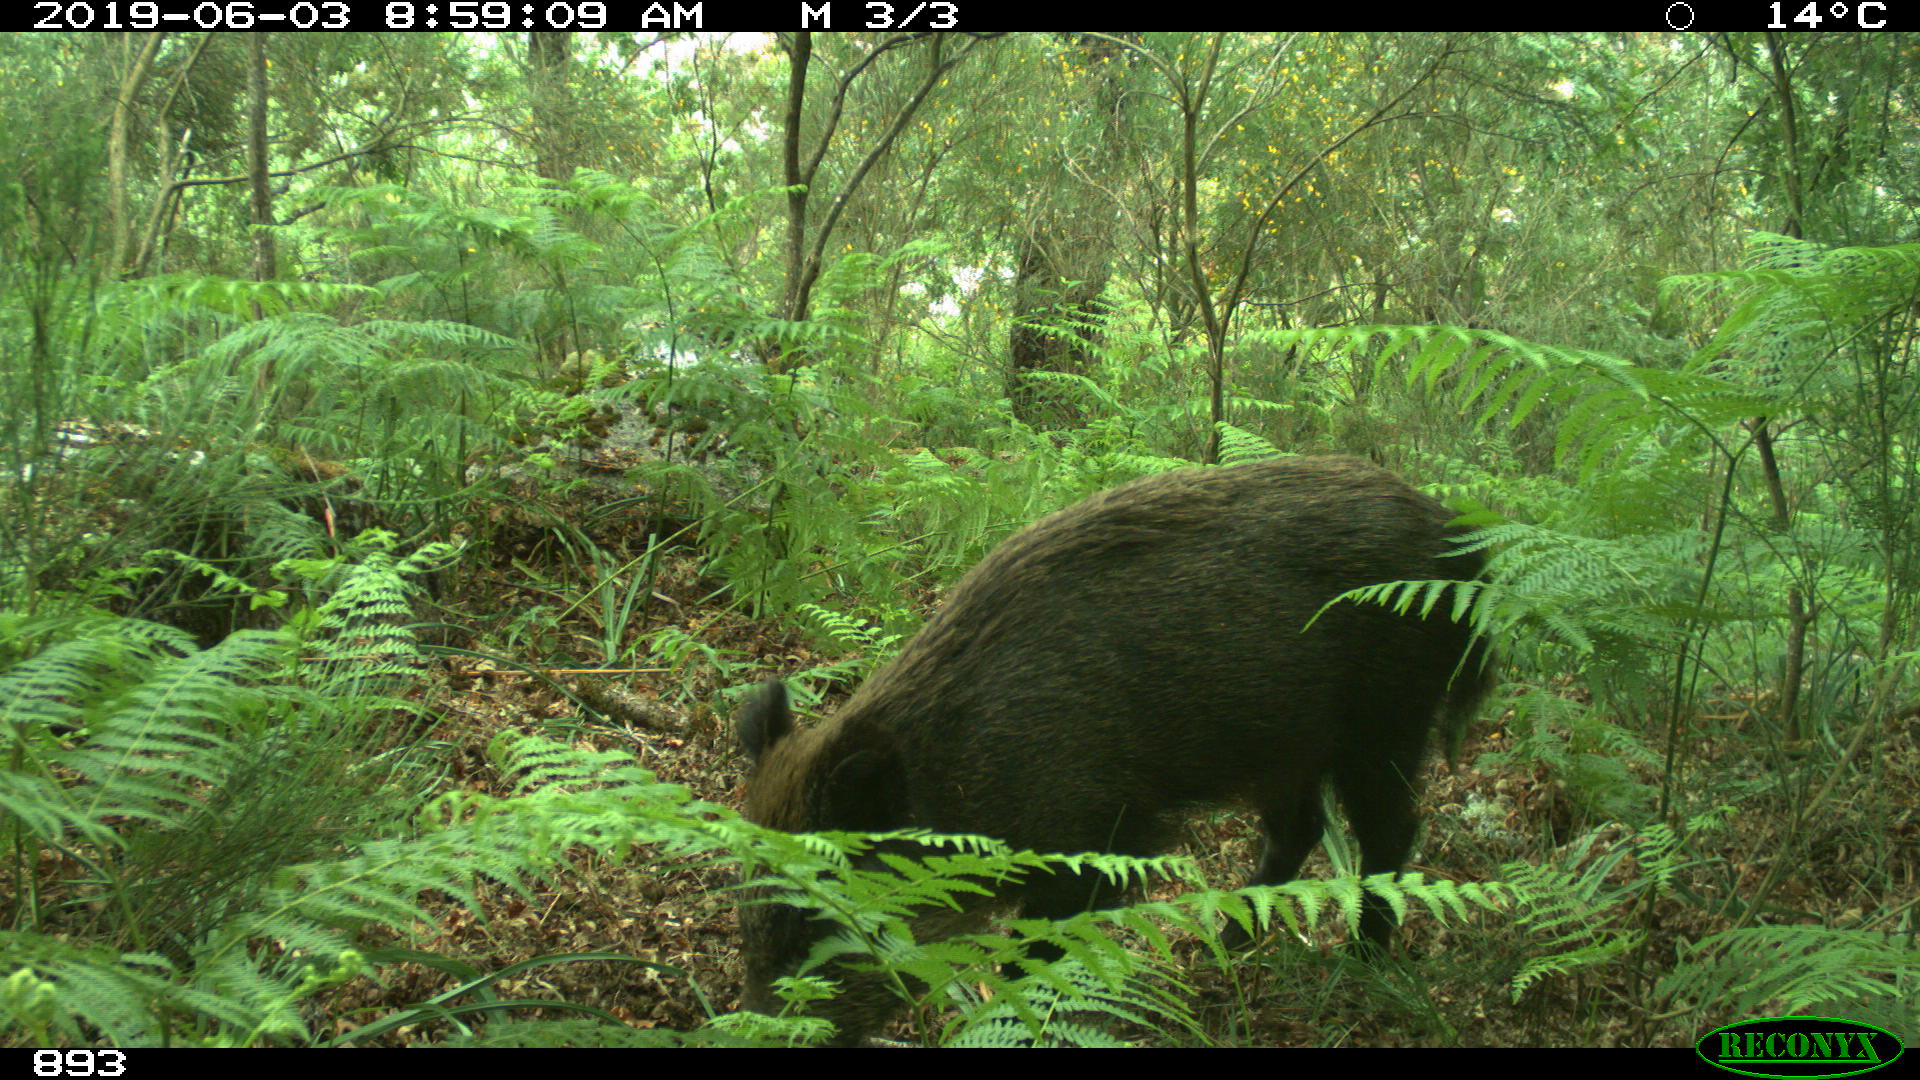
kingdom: Animalia
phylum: Chordata
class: Mammalia
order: Artiodactyla
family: Suidae
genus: Sus
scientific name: Sus scrofa
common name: Wild boar
